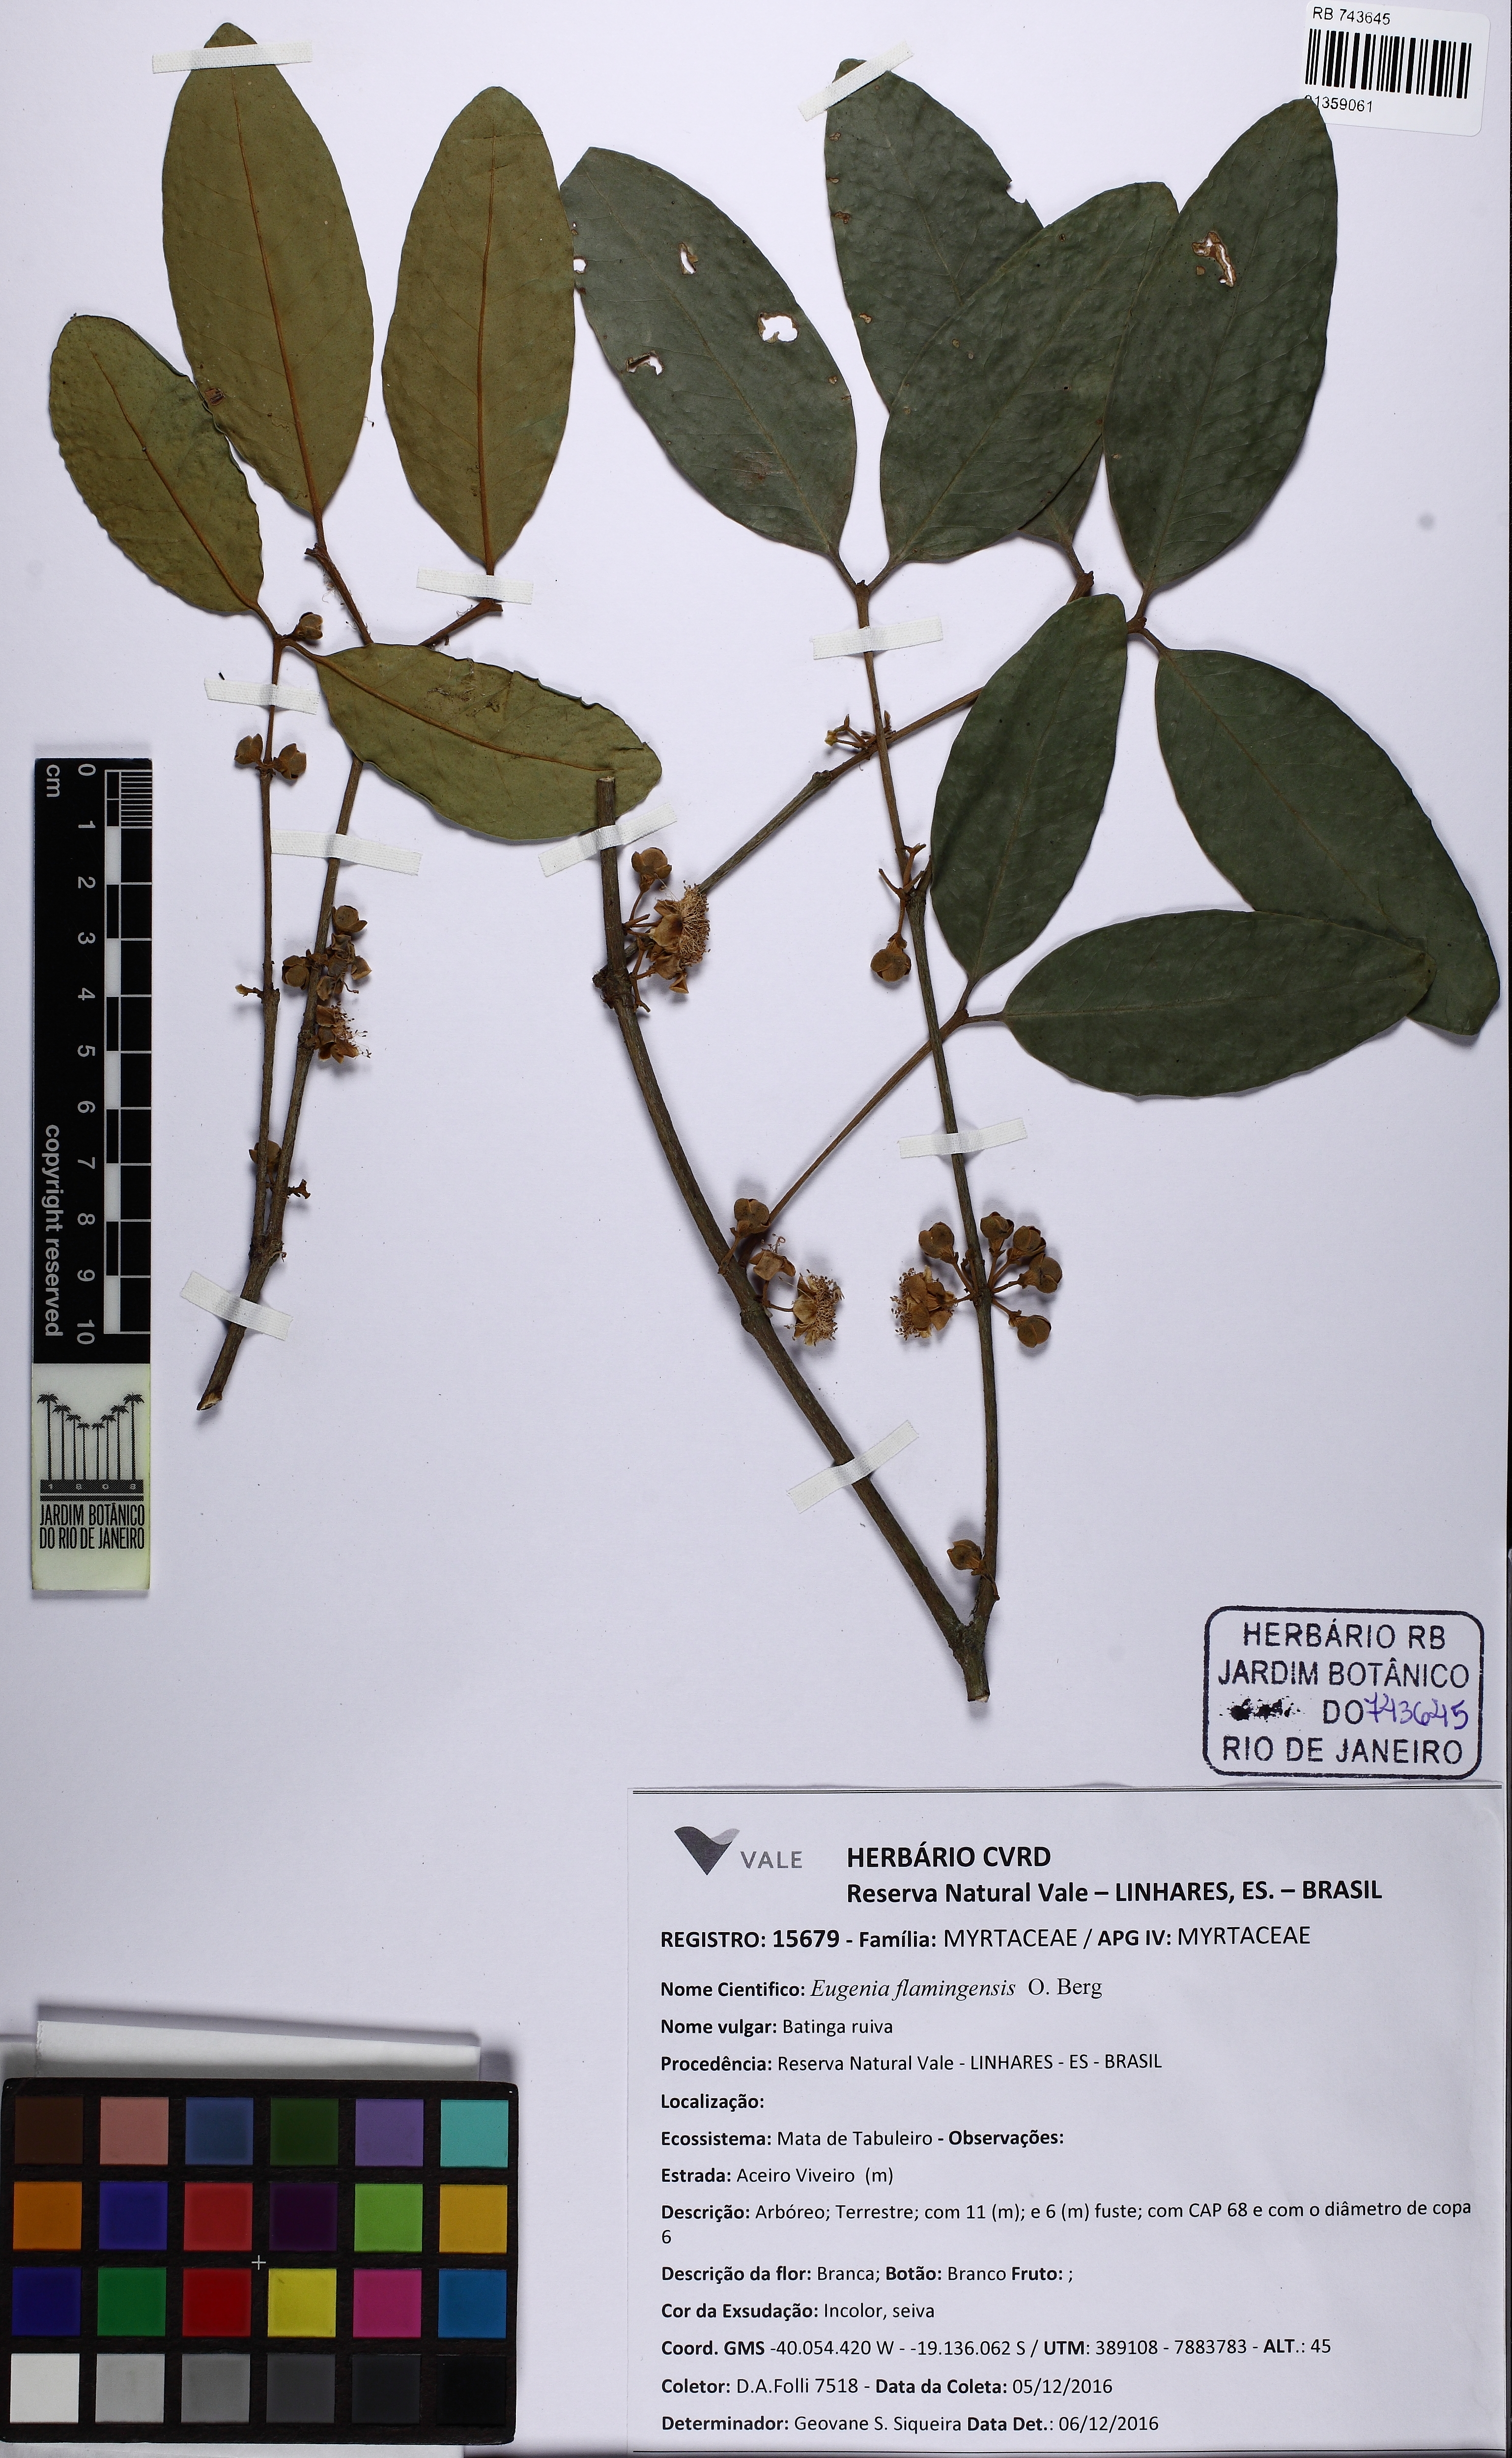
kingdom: Plantae
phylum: Tracheophyta
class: Magnoliopsida
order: Myrtales
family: Myrtaceae
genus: Eugenia
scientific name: Eugenia moritziana
